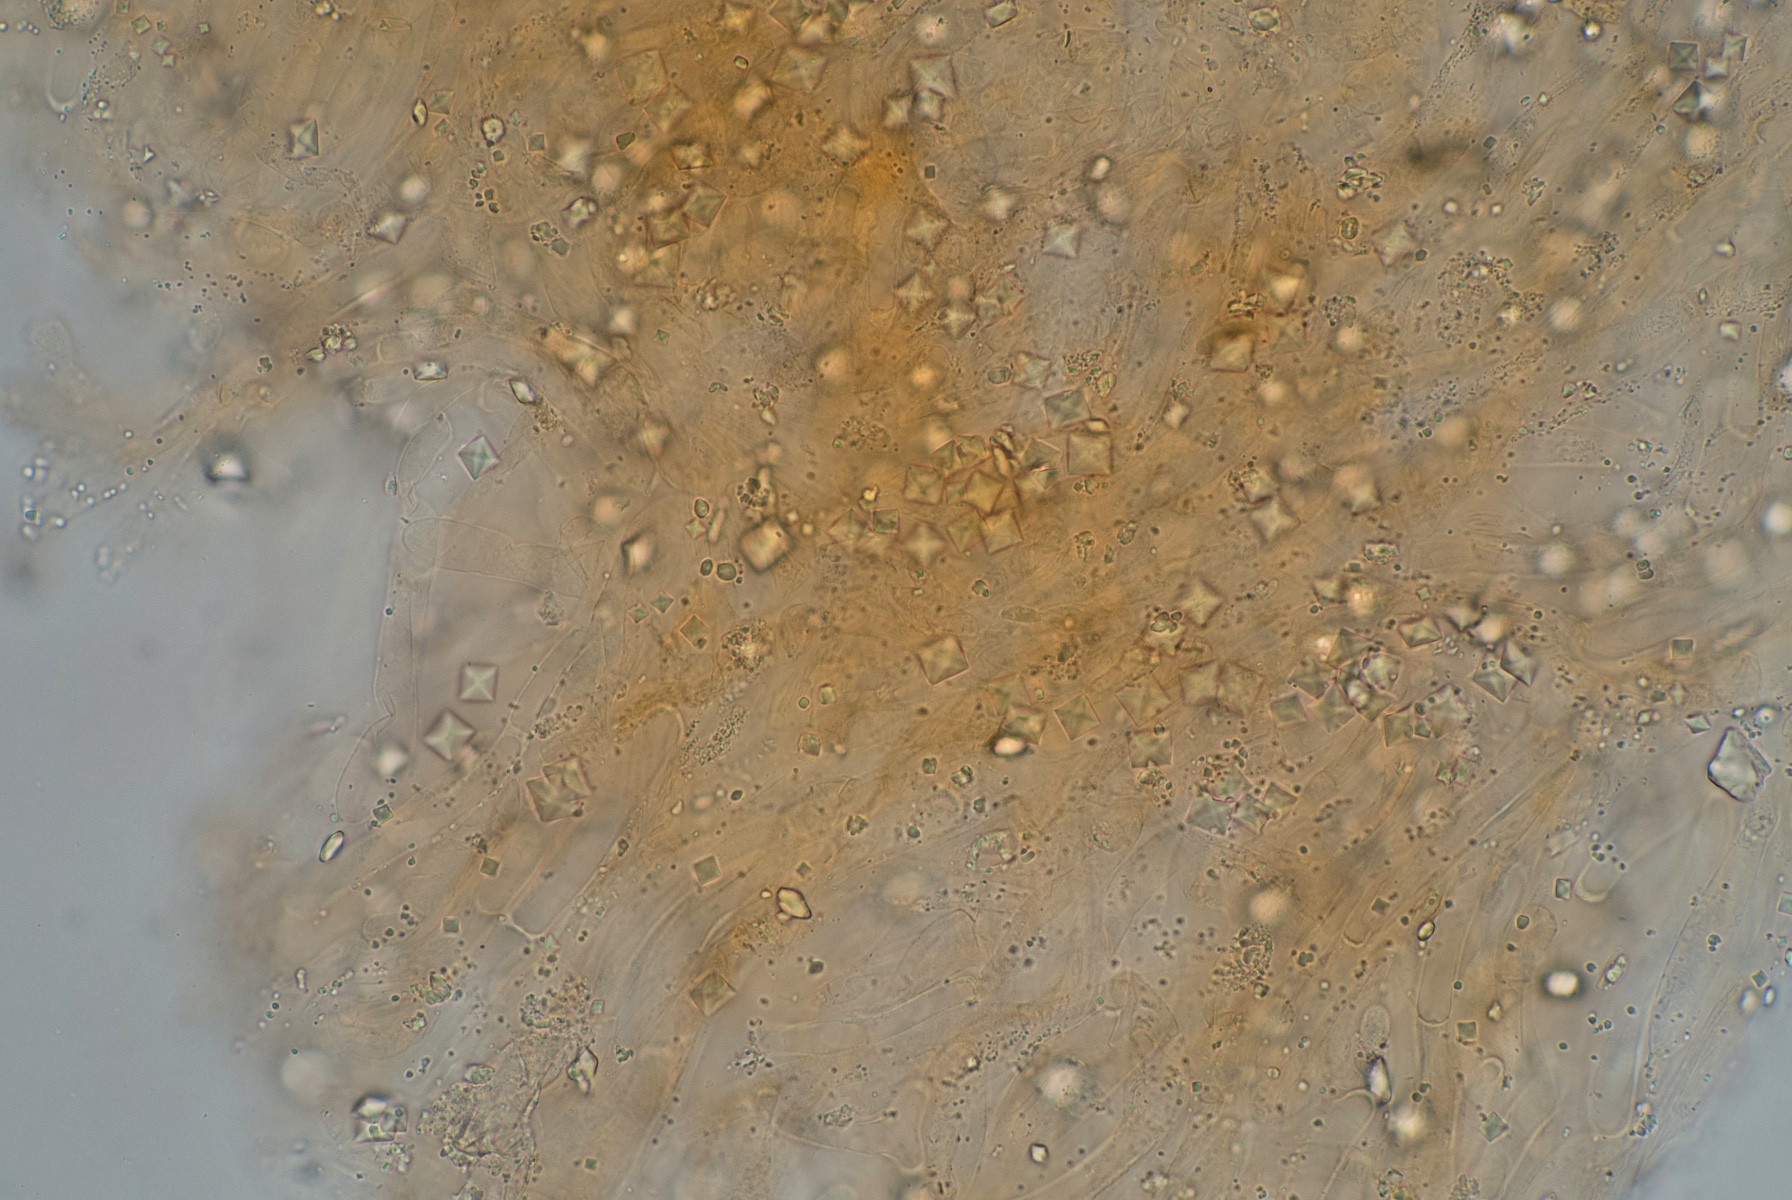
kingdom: Fungi
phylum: Basidiomycota
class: Agaricomycetes
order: Hymenochaetales
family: Rickenellaceae
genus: Loreleia
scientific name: Loreleia marchantiae
